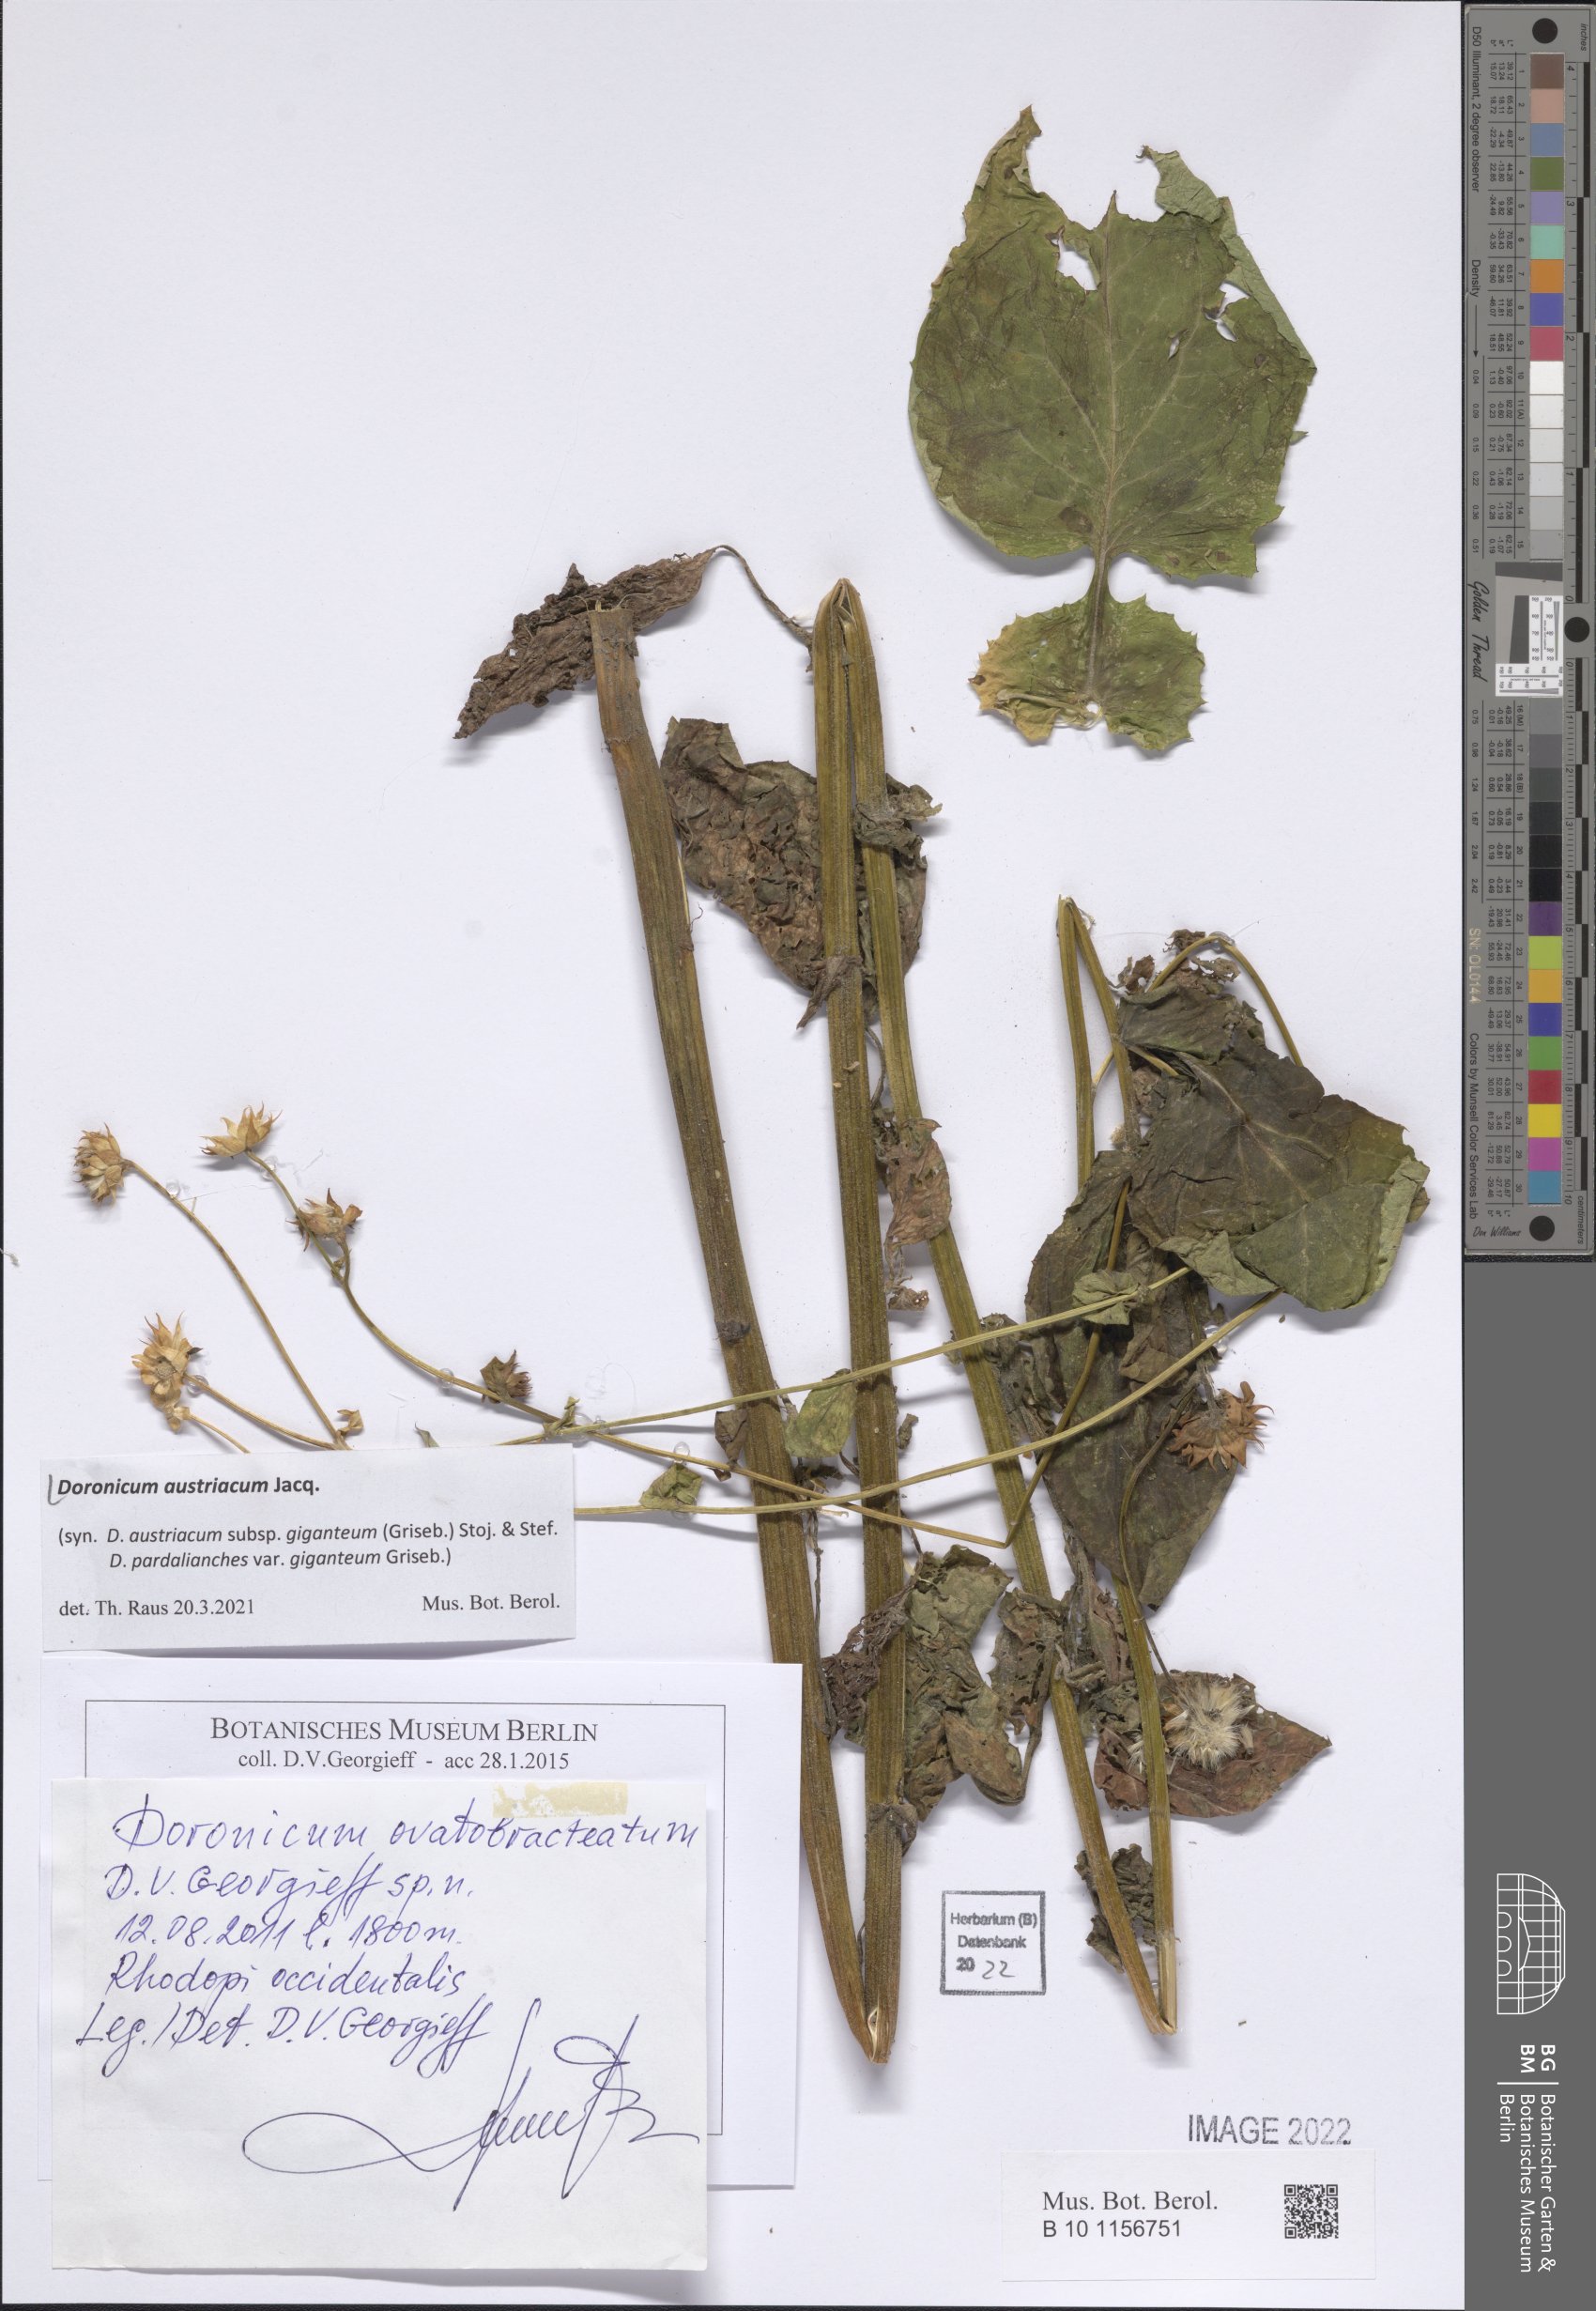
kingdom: Plantae
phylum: Tracheophyta
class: Magnoliopsida
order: Asterales
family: Asteraceae
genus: Doronicum
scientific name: Doronicum austriacum
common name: Austrian leopard's-bane
